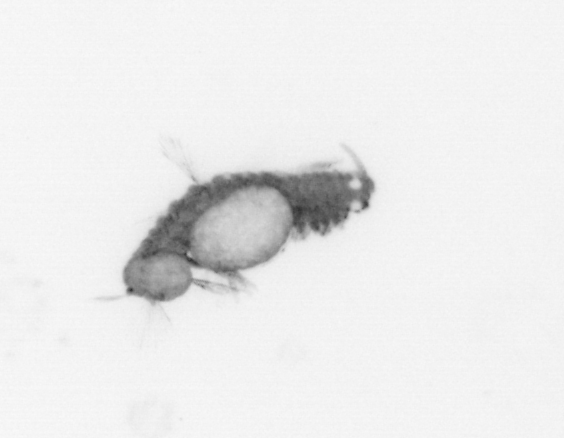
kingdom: Animalia
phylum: Annelida
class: Polychaeta
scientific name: Polychaeta
